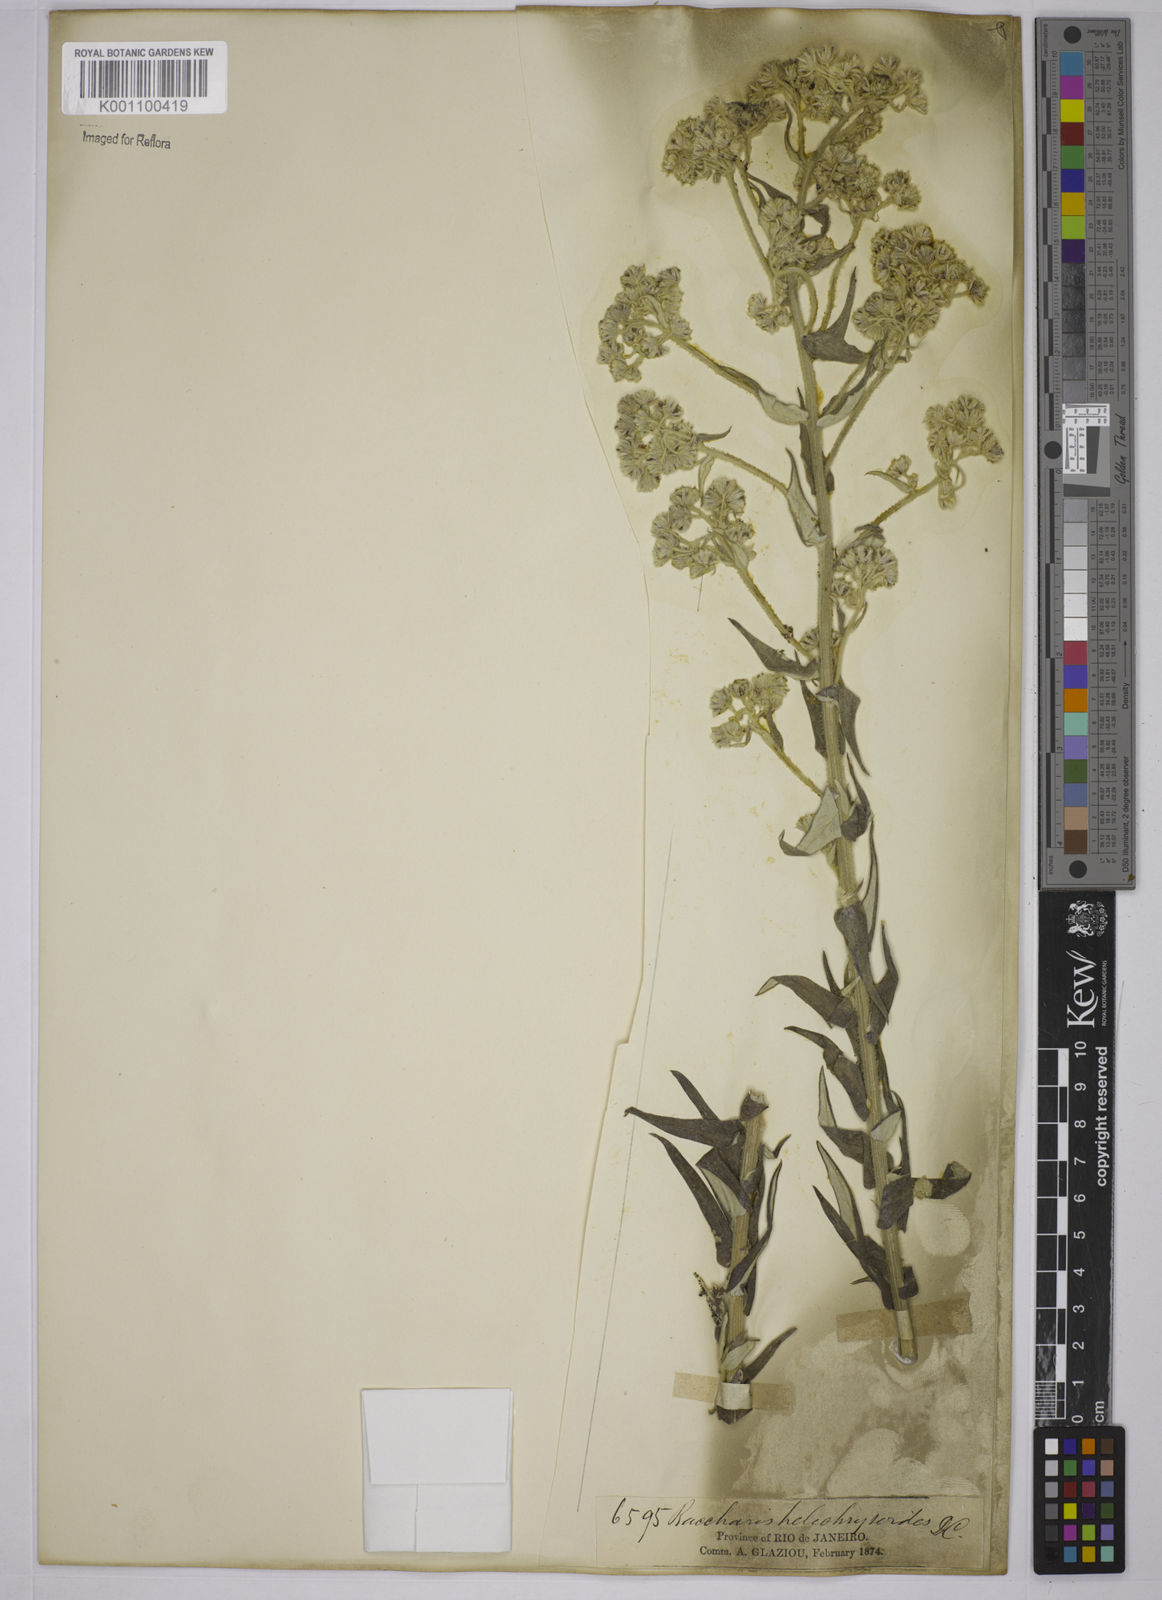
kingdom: Plantae
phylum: Tracheophyta
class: Magnoliopsida
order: Asterales
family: Asteraceae
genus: Baccharis
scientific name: Baccharis helichrysoides
